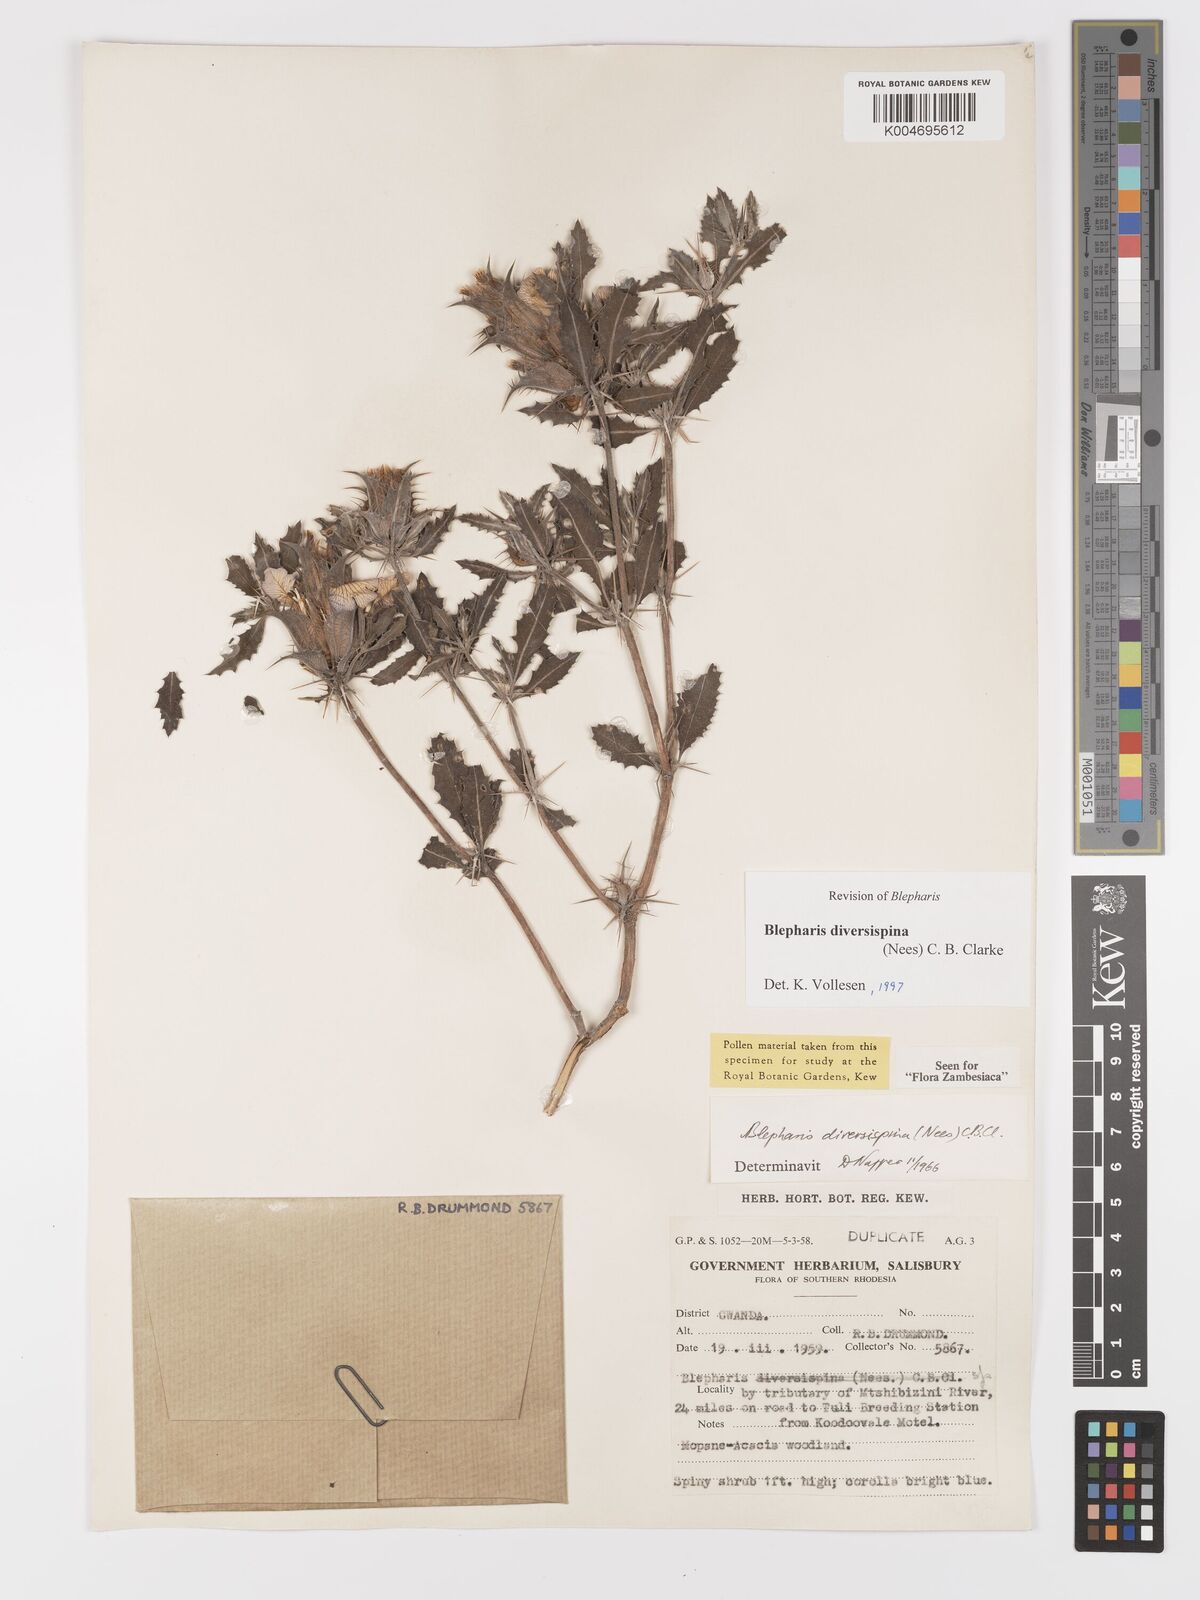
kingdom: Plantae
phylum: Tracheophyta
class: Magnoliopsida
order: Lamiales
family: Acanthaceae
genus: Blepharis
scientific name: Blepharis diversispina
